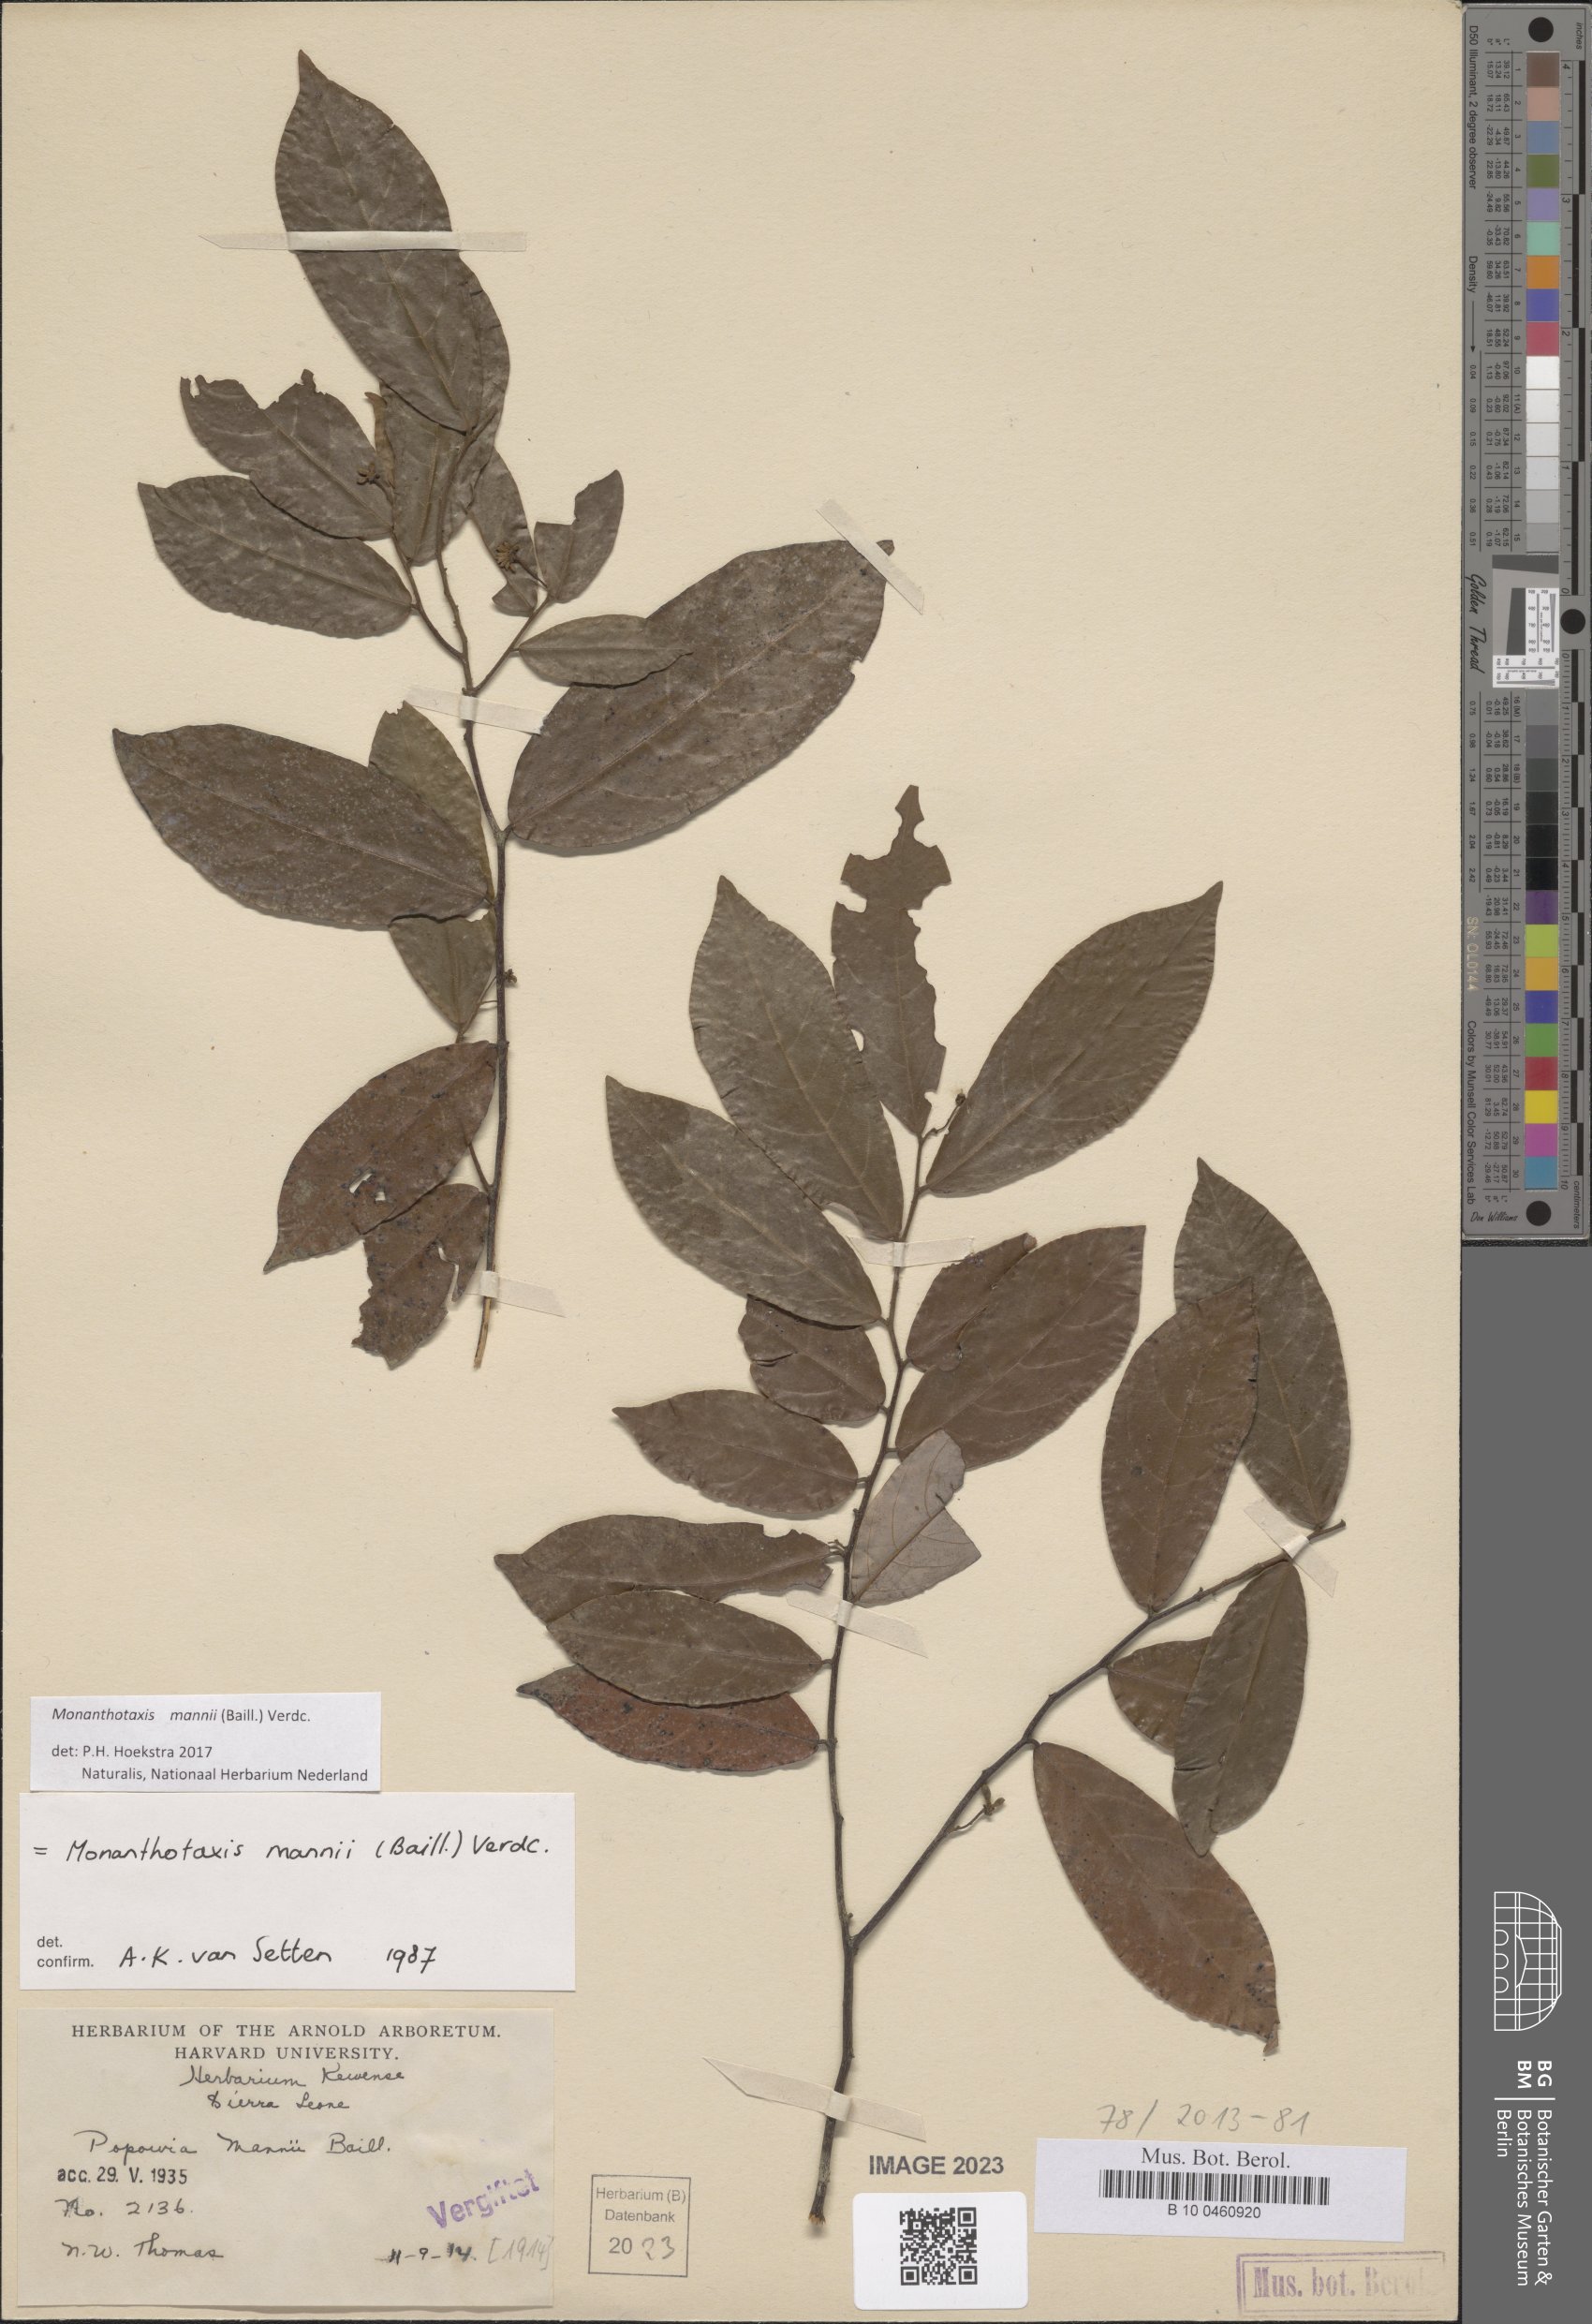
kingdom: Plantae
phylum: Tracheophyta
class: Magnoliopsida
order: Magnoliales
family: Annonaceae
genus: Monanthotaxis
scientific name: Monanthotaxis mannii
